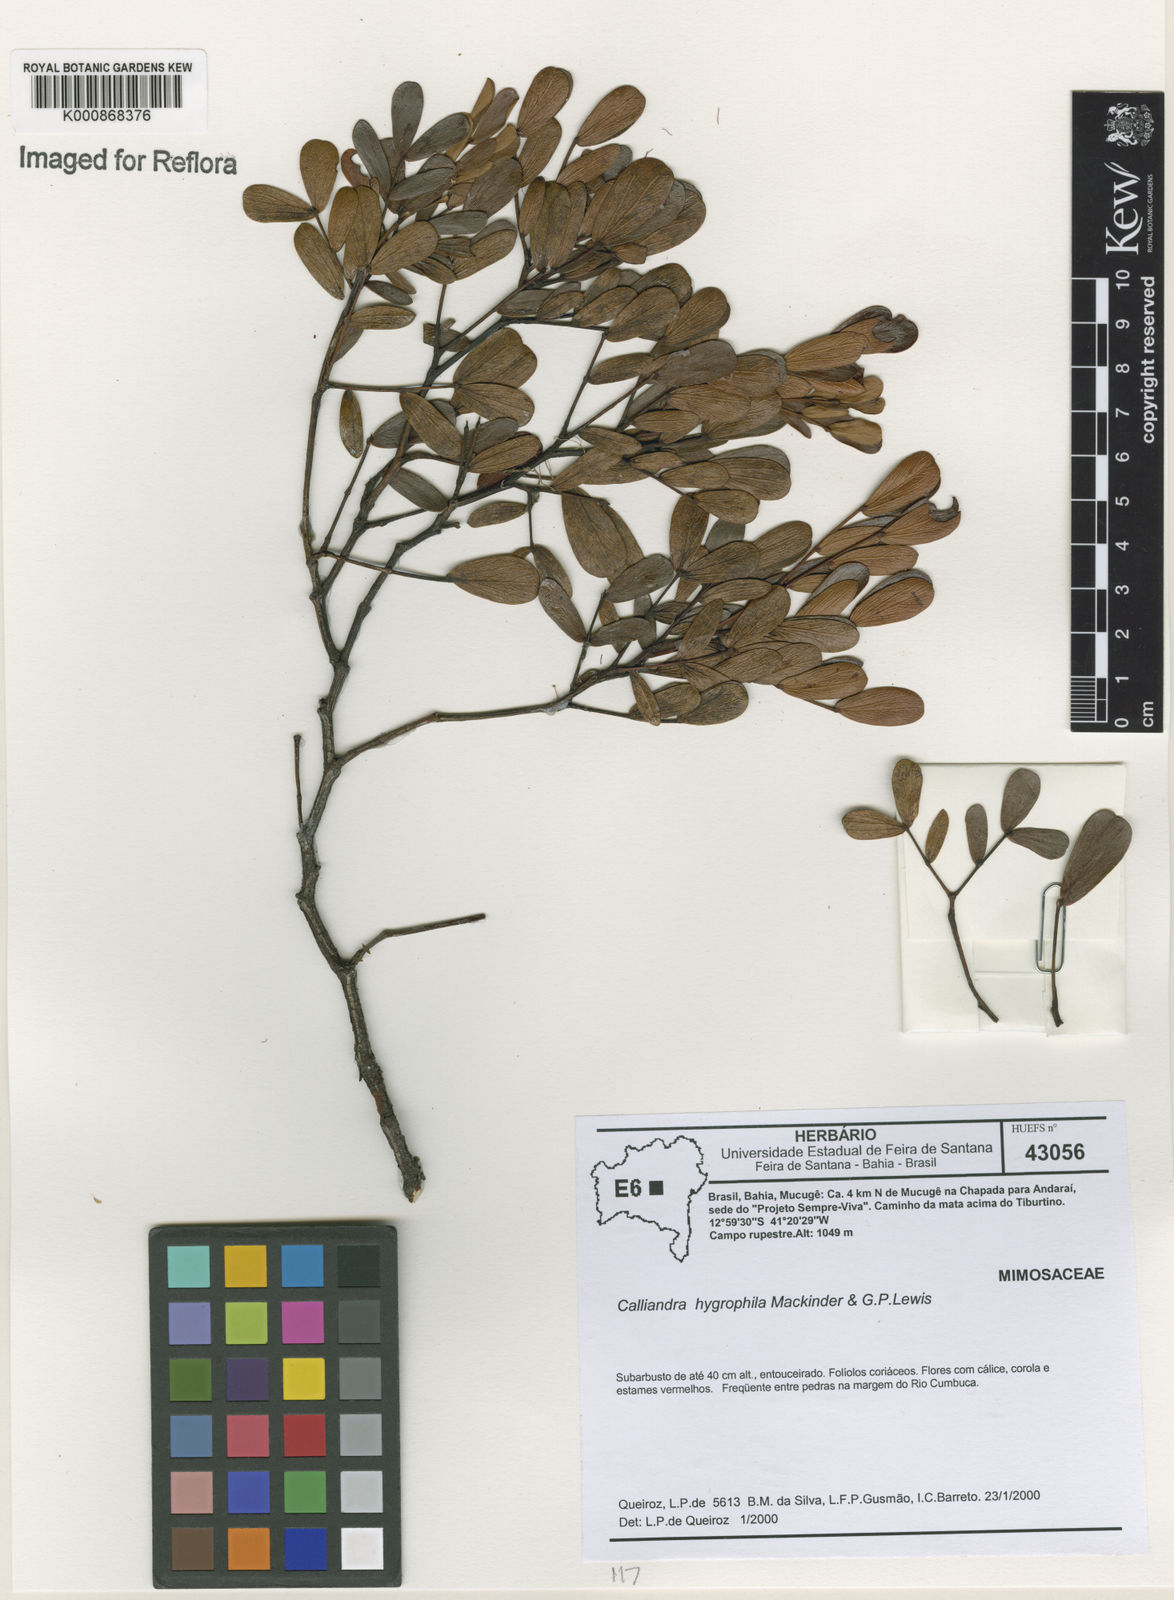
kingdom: Plantae
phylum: Tracheophyta
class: Magnoliopsida
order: Fabales
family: Fabaceae
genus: Calliandra
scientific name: Calliandra hygrophila
